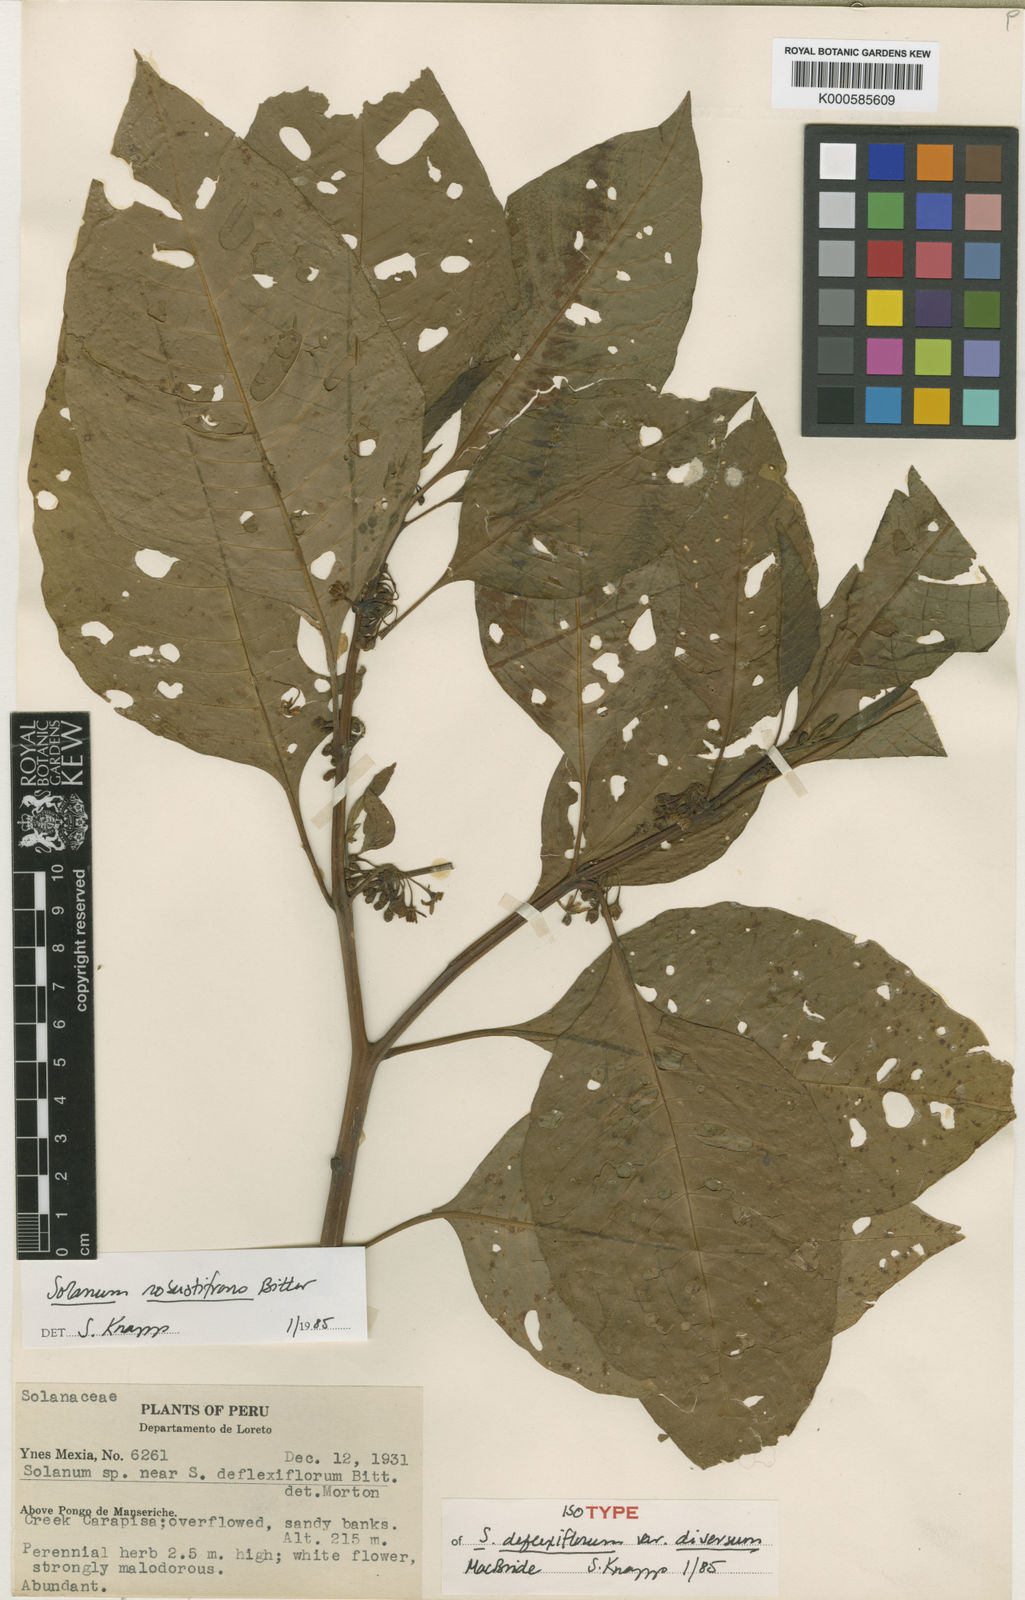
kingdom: Plantae
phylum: Tracheophyta
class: Magnoliopsida
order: Solanales
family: Solanaceae
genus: Solanum
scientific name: Solanum robustifrons
